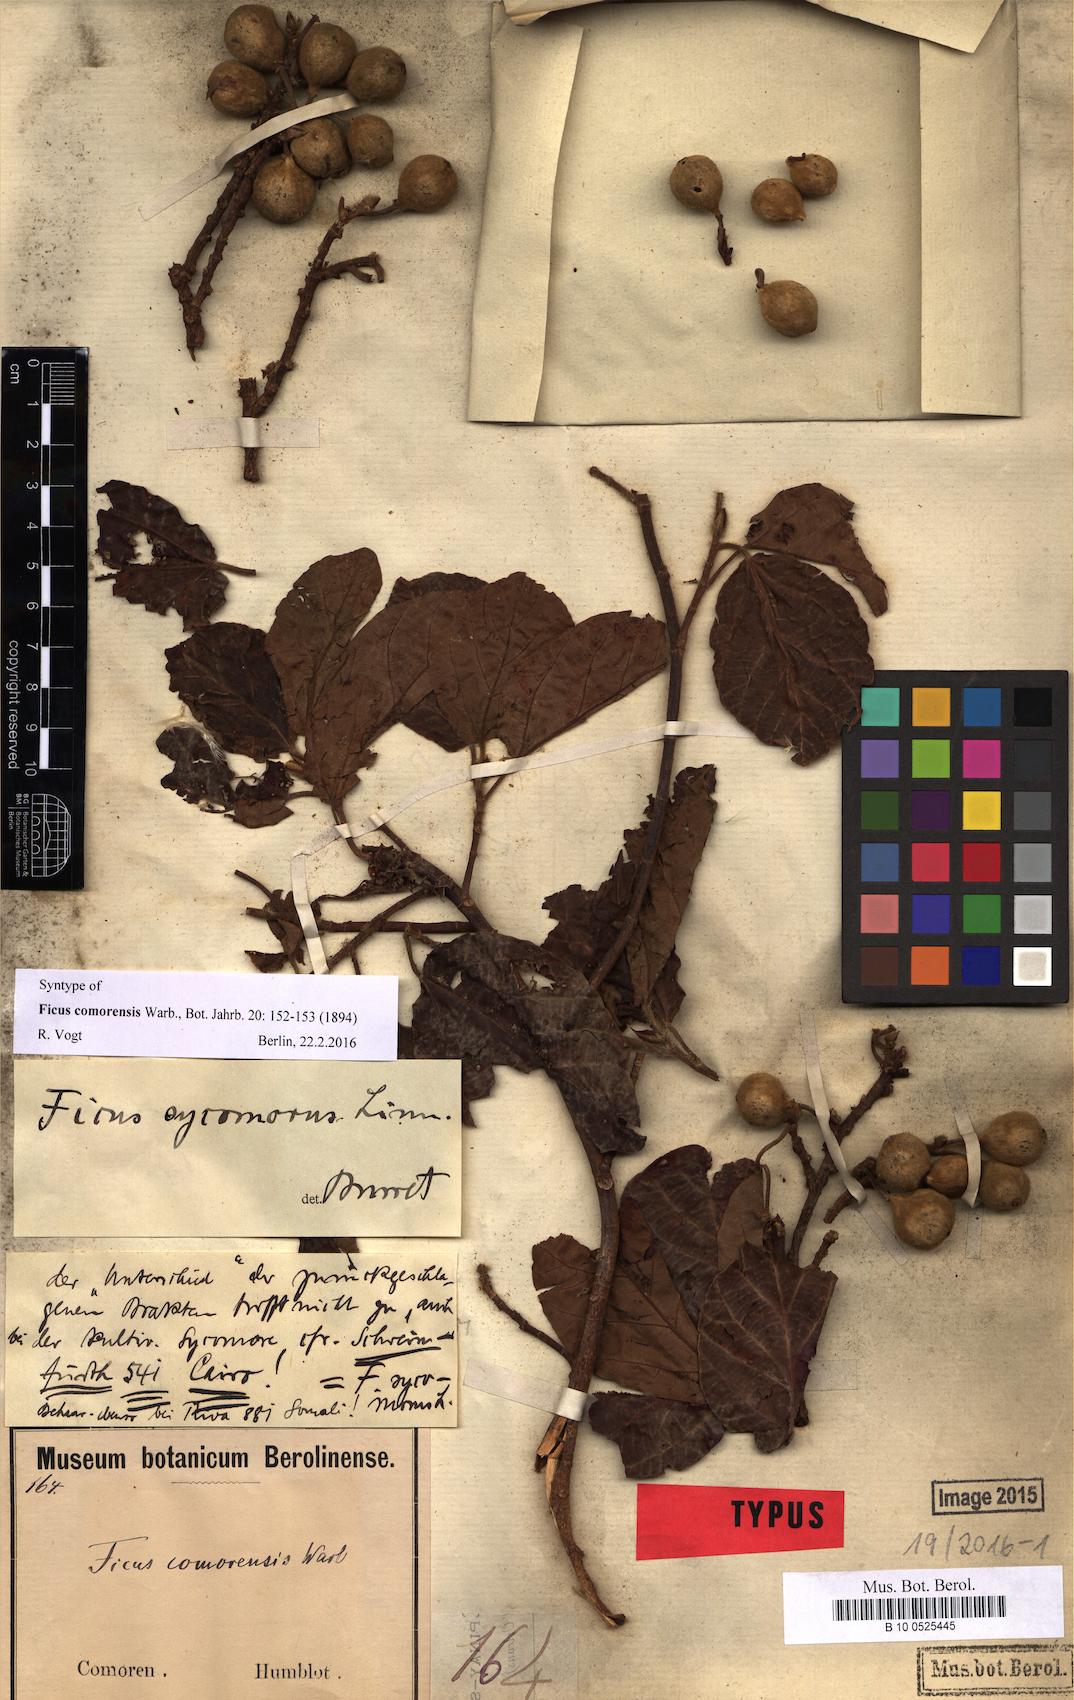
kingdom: Plantae
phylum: Tracheophyta
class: Magnoliopsida
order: Rosales
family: Moraceae
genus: Ficus
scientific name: Ficus sycomorus
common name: Sycomore
